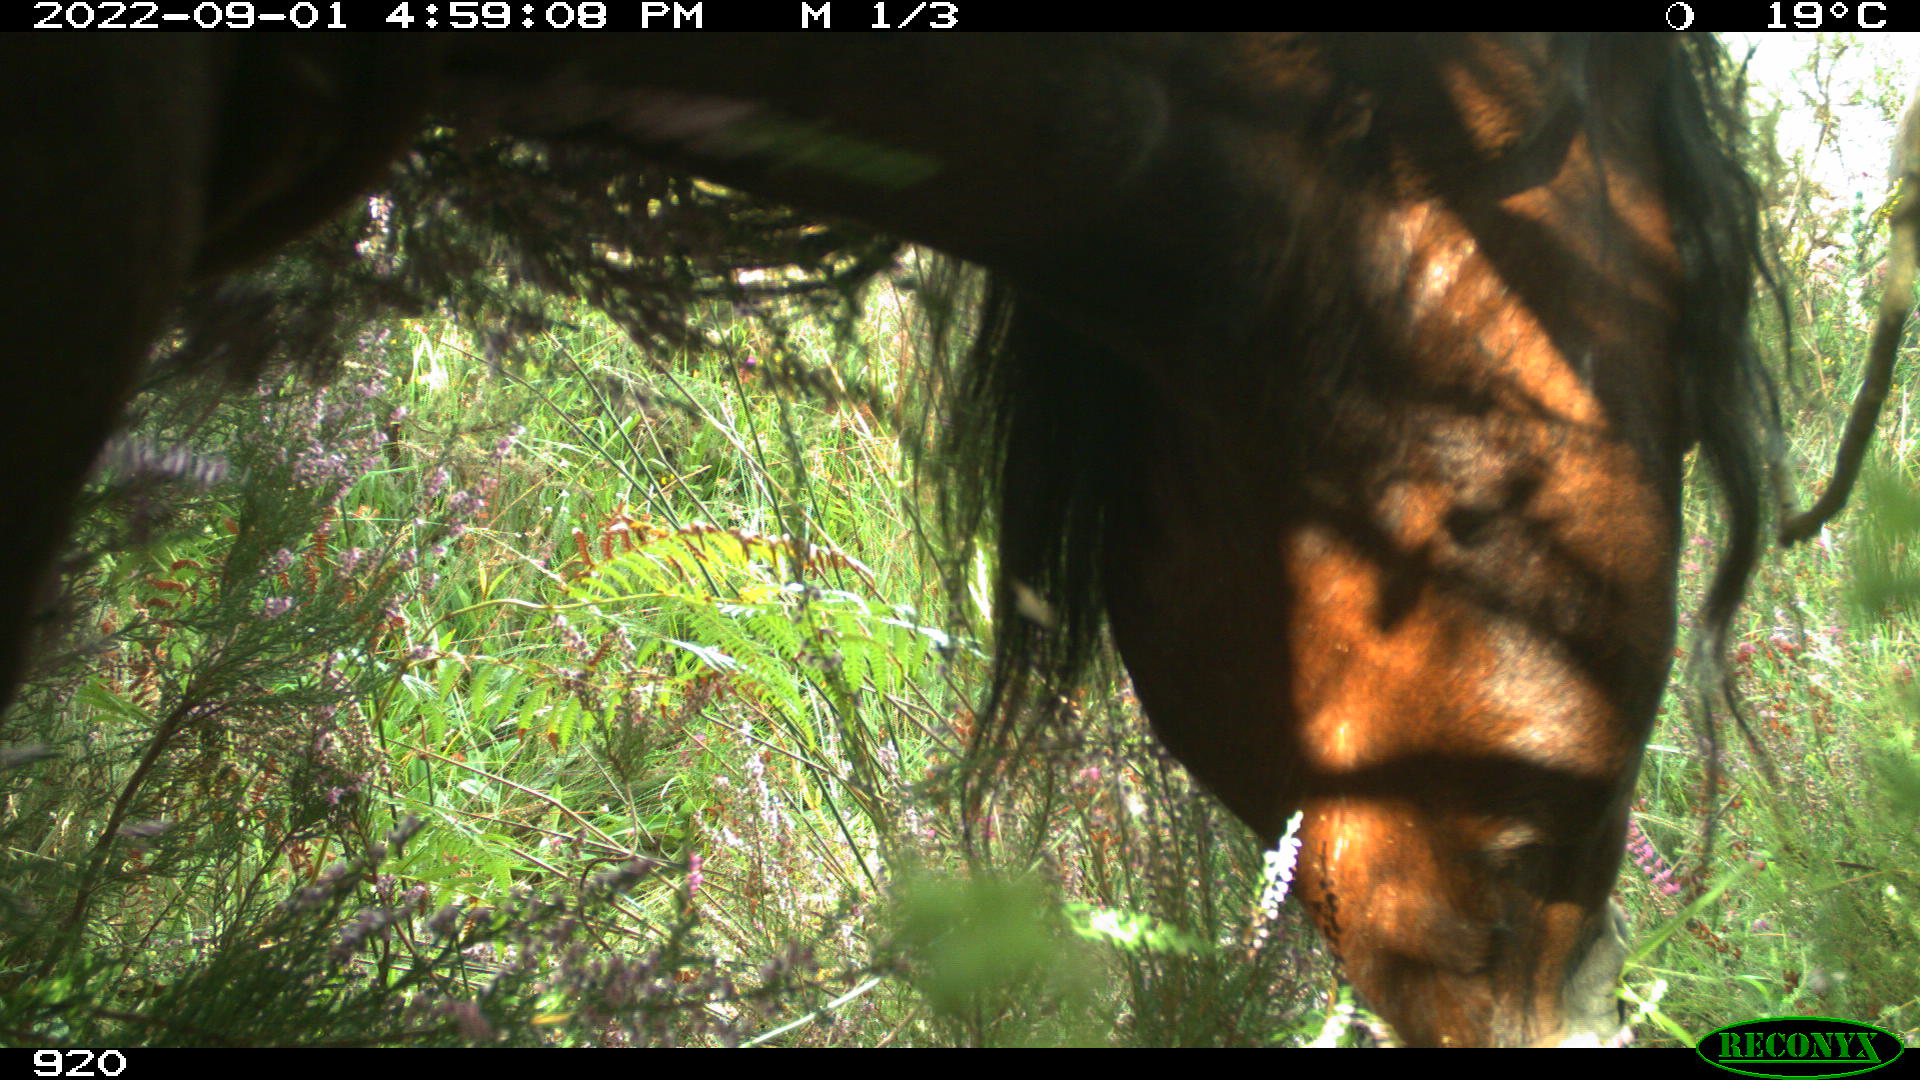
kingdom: Animalia
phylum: Chordata
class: Mammalia
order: Perissodactyla
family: Equidae
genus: Equus
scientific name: Equus caballus
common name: Horse
